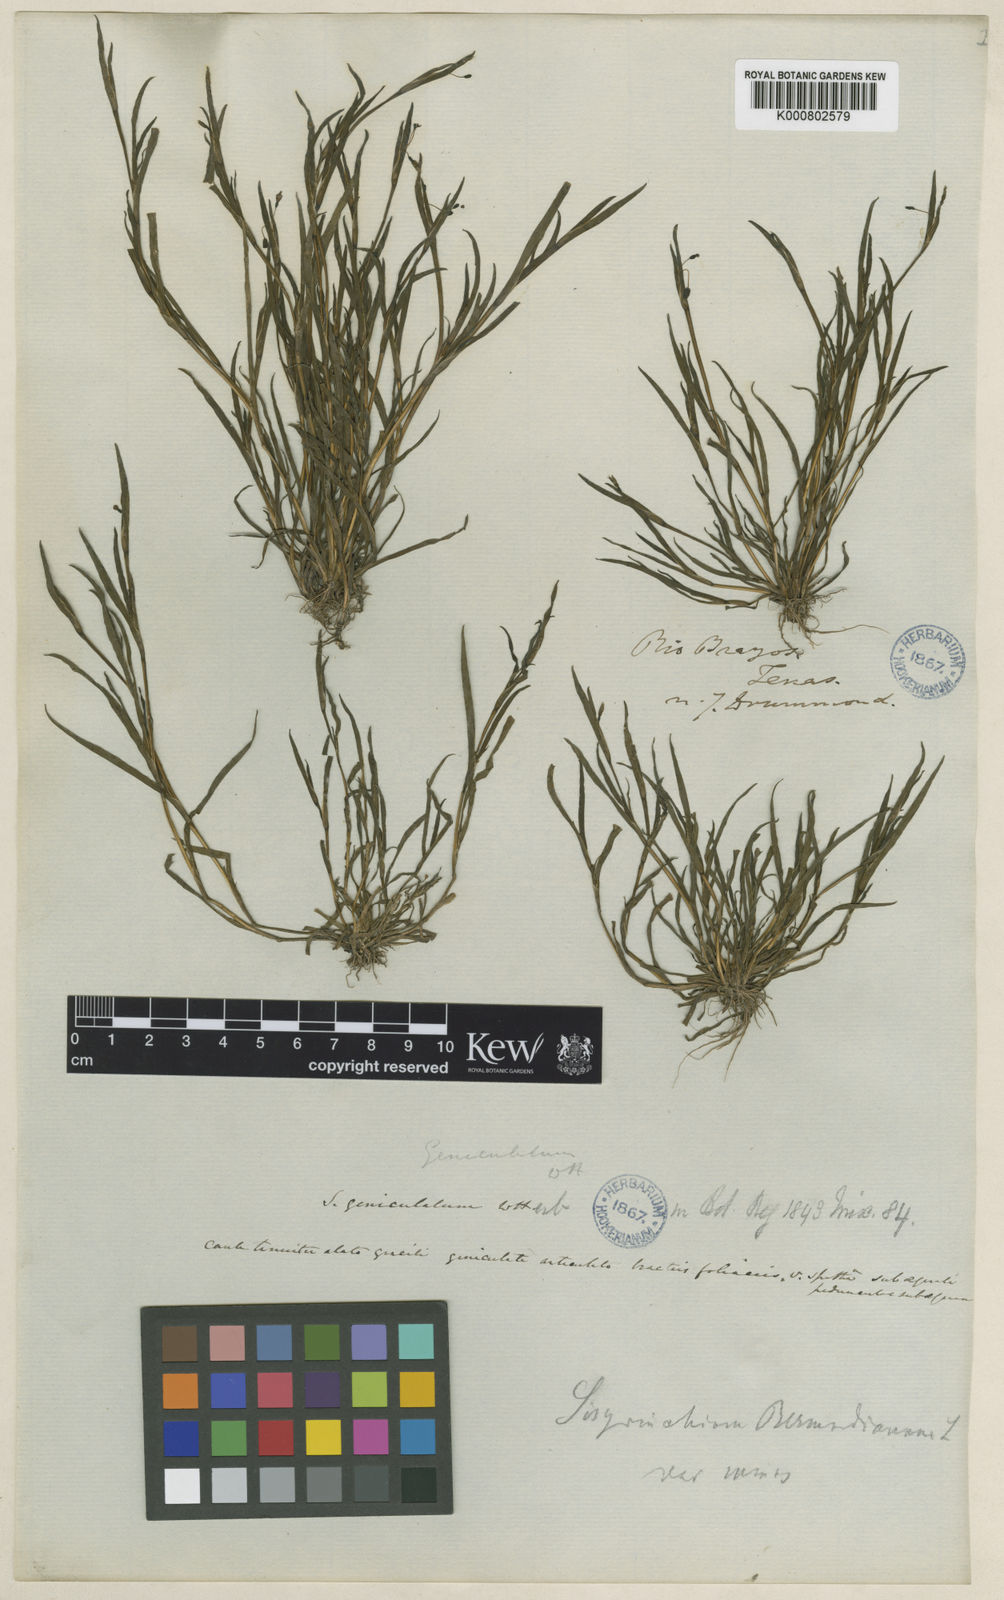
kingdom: Plantae
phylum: Tracheophyta
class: Liliopsida
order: Asparagales
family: Iridaceae
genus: Sisyrinchium
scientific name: Sisyrinchium minus
